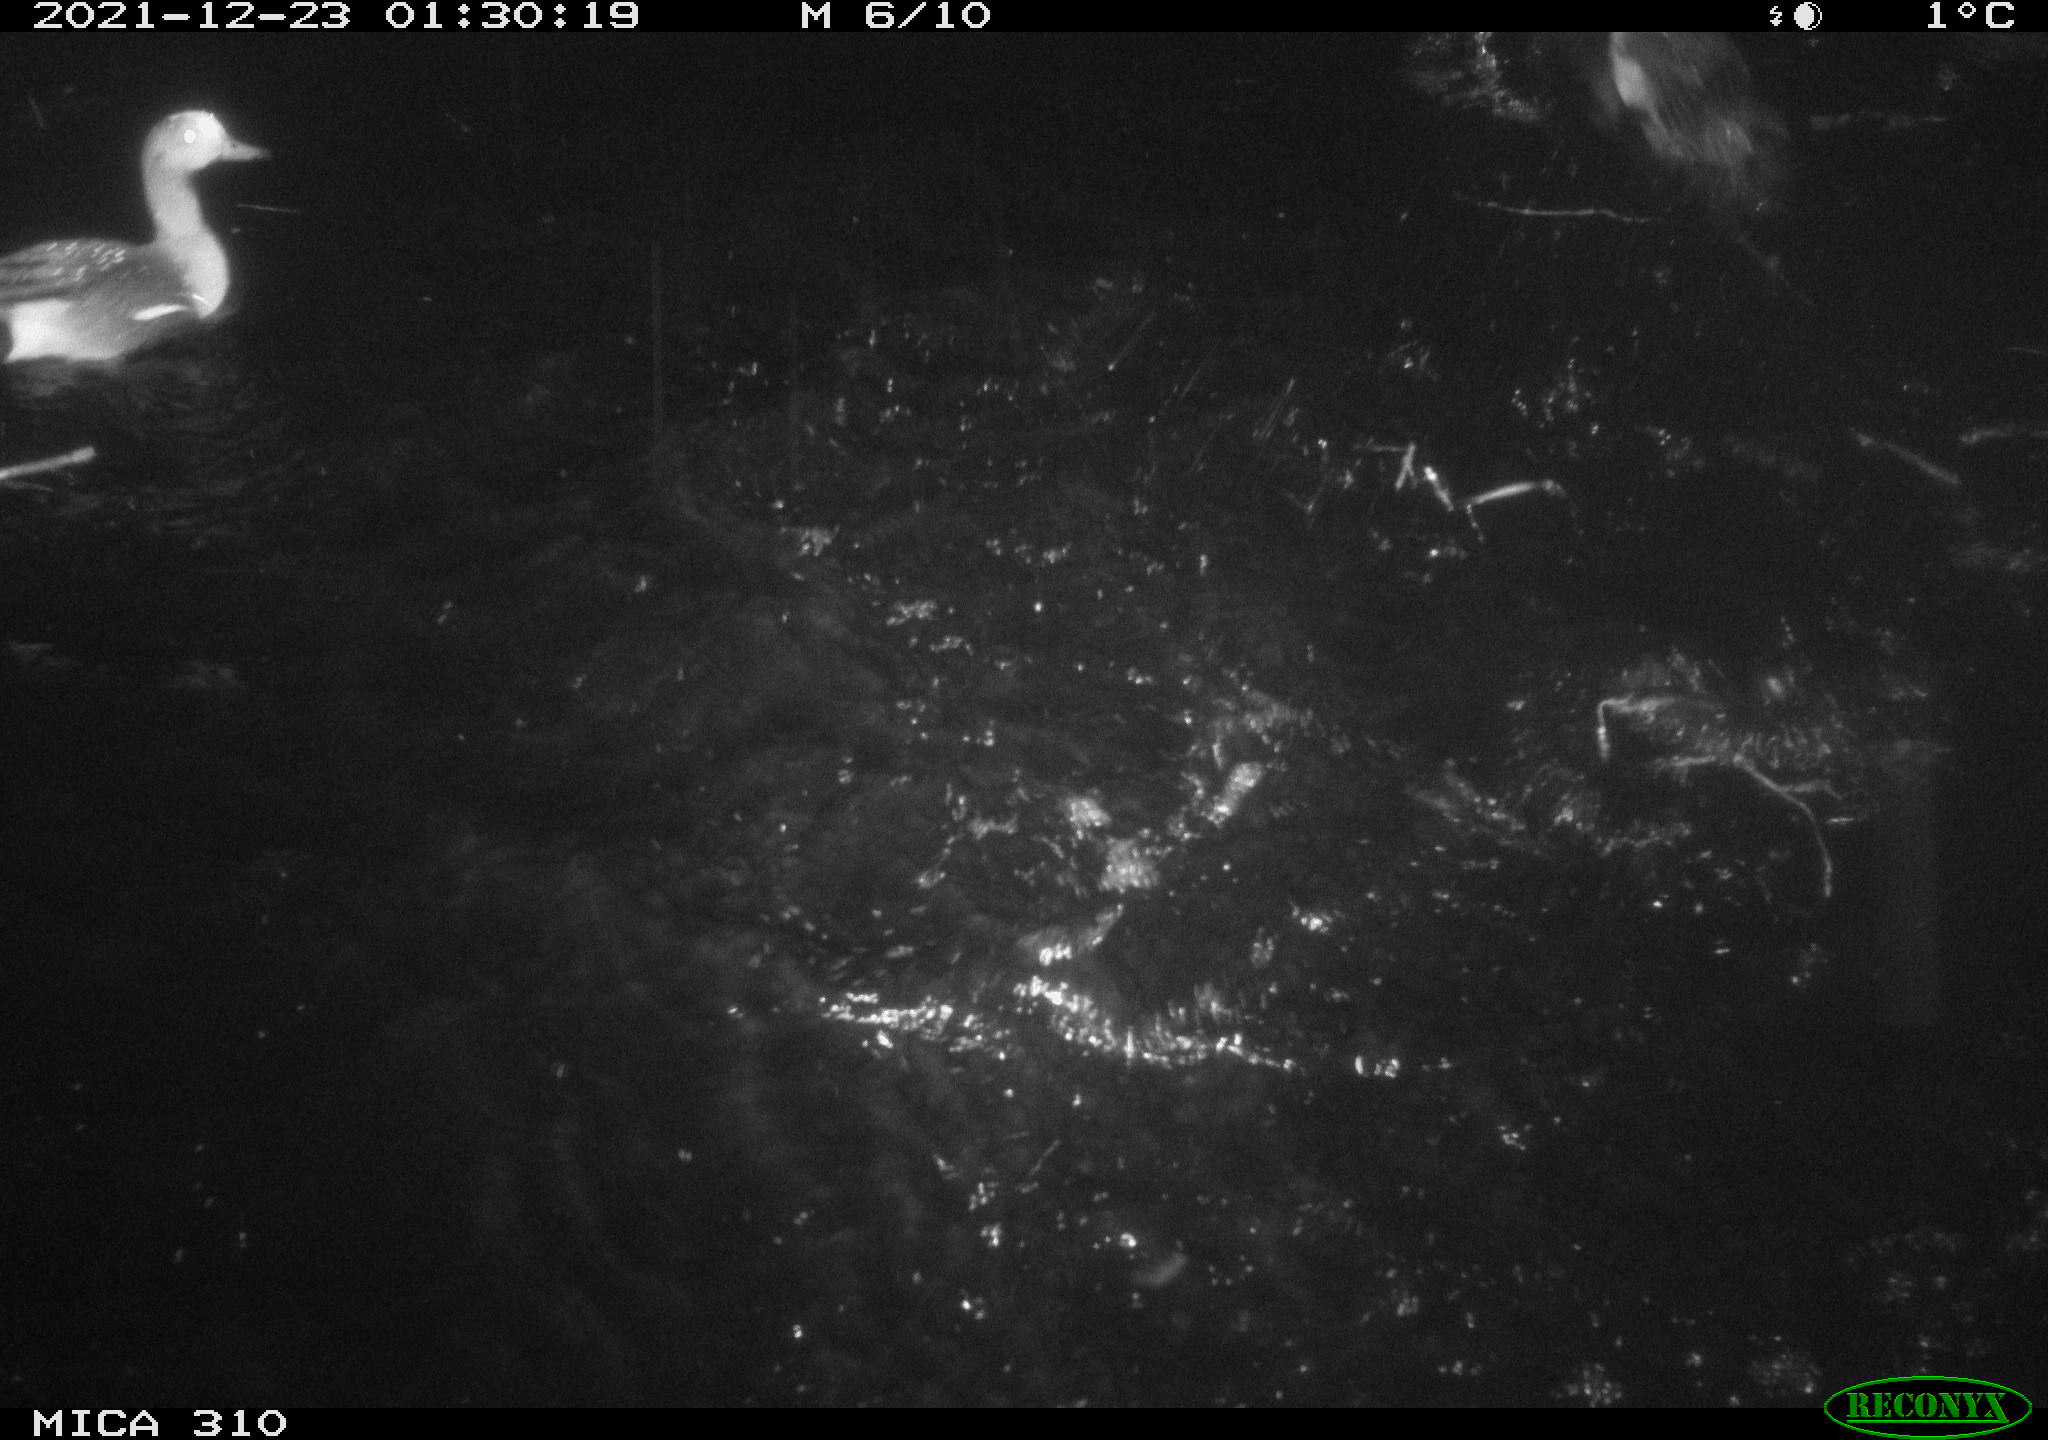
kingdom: Animalia
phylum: Chordata
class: Aves
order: Anseriformes
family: Anatidae
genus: Mareca
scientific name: Mareca strepera
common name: Gadwall
